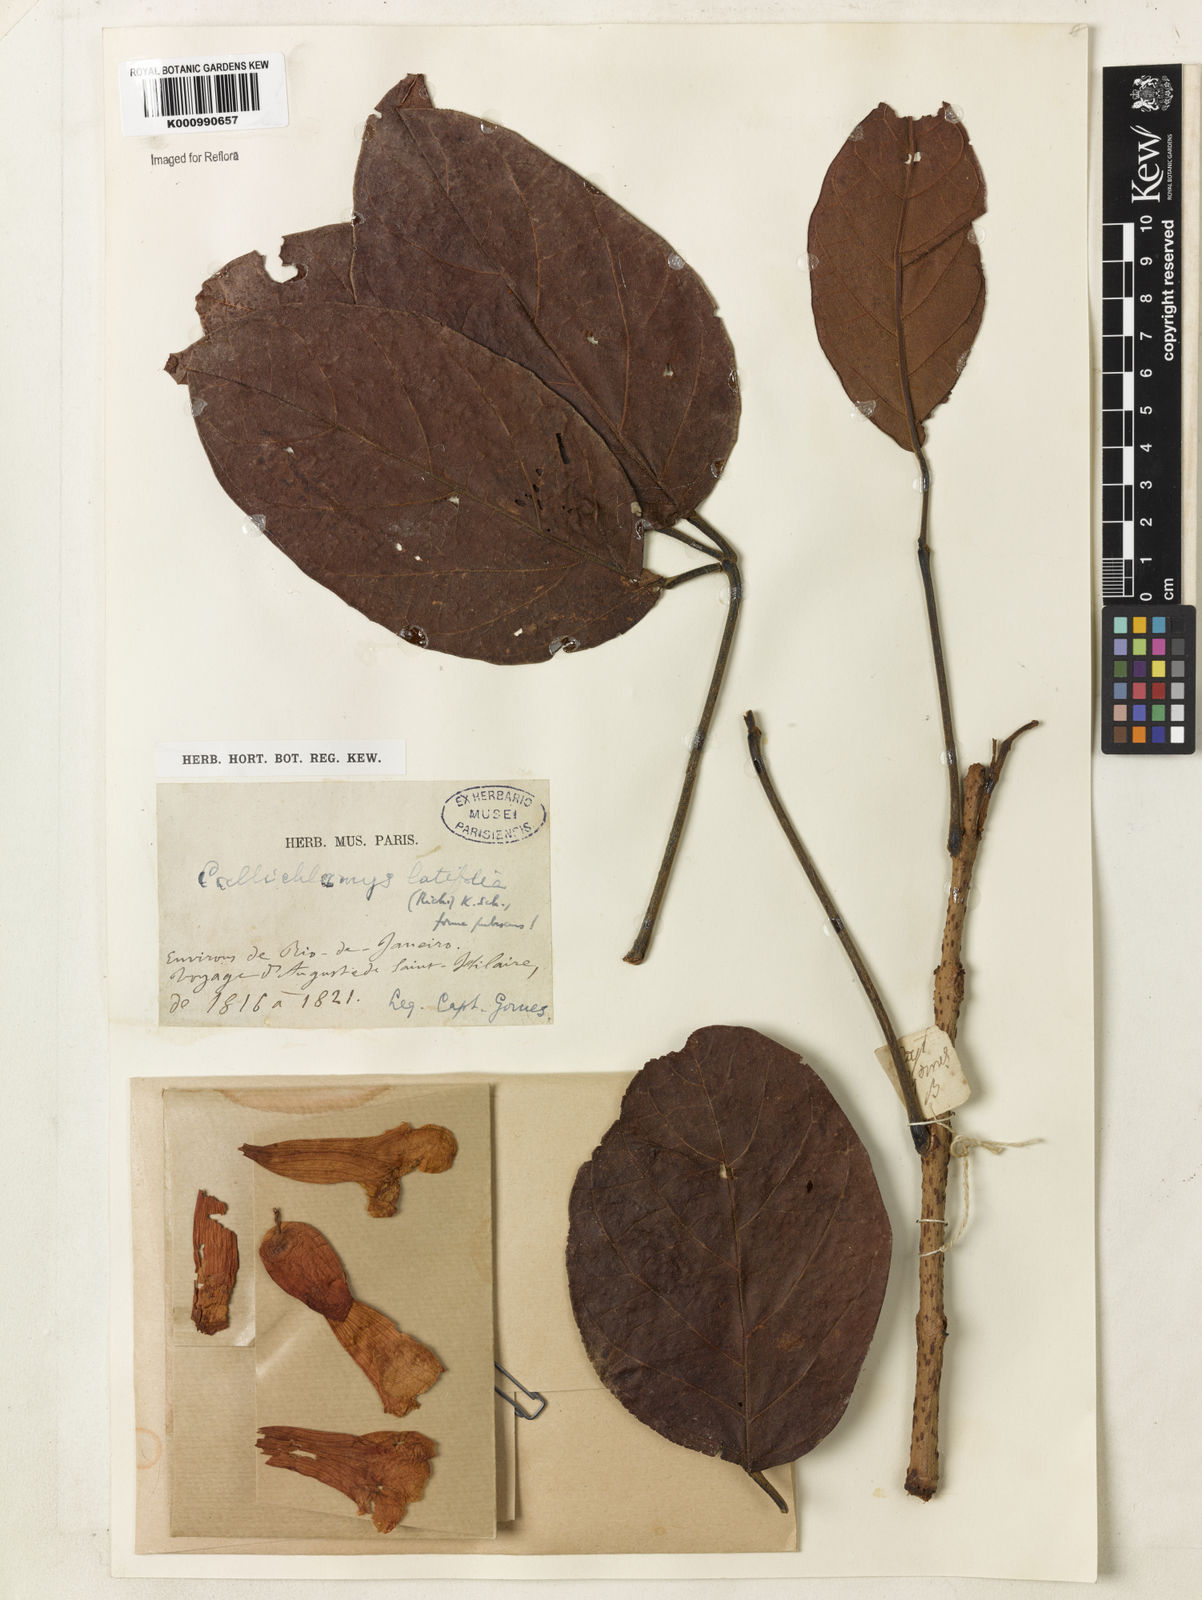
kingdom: Plantae
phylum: Tracheophyta
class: Magnoliopsida
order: Lamiales
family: Bignoniaceae
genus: Callichlamys
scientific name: Callichlamys latifolia
